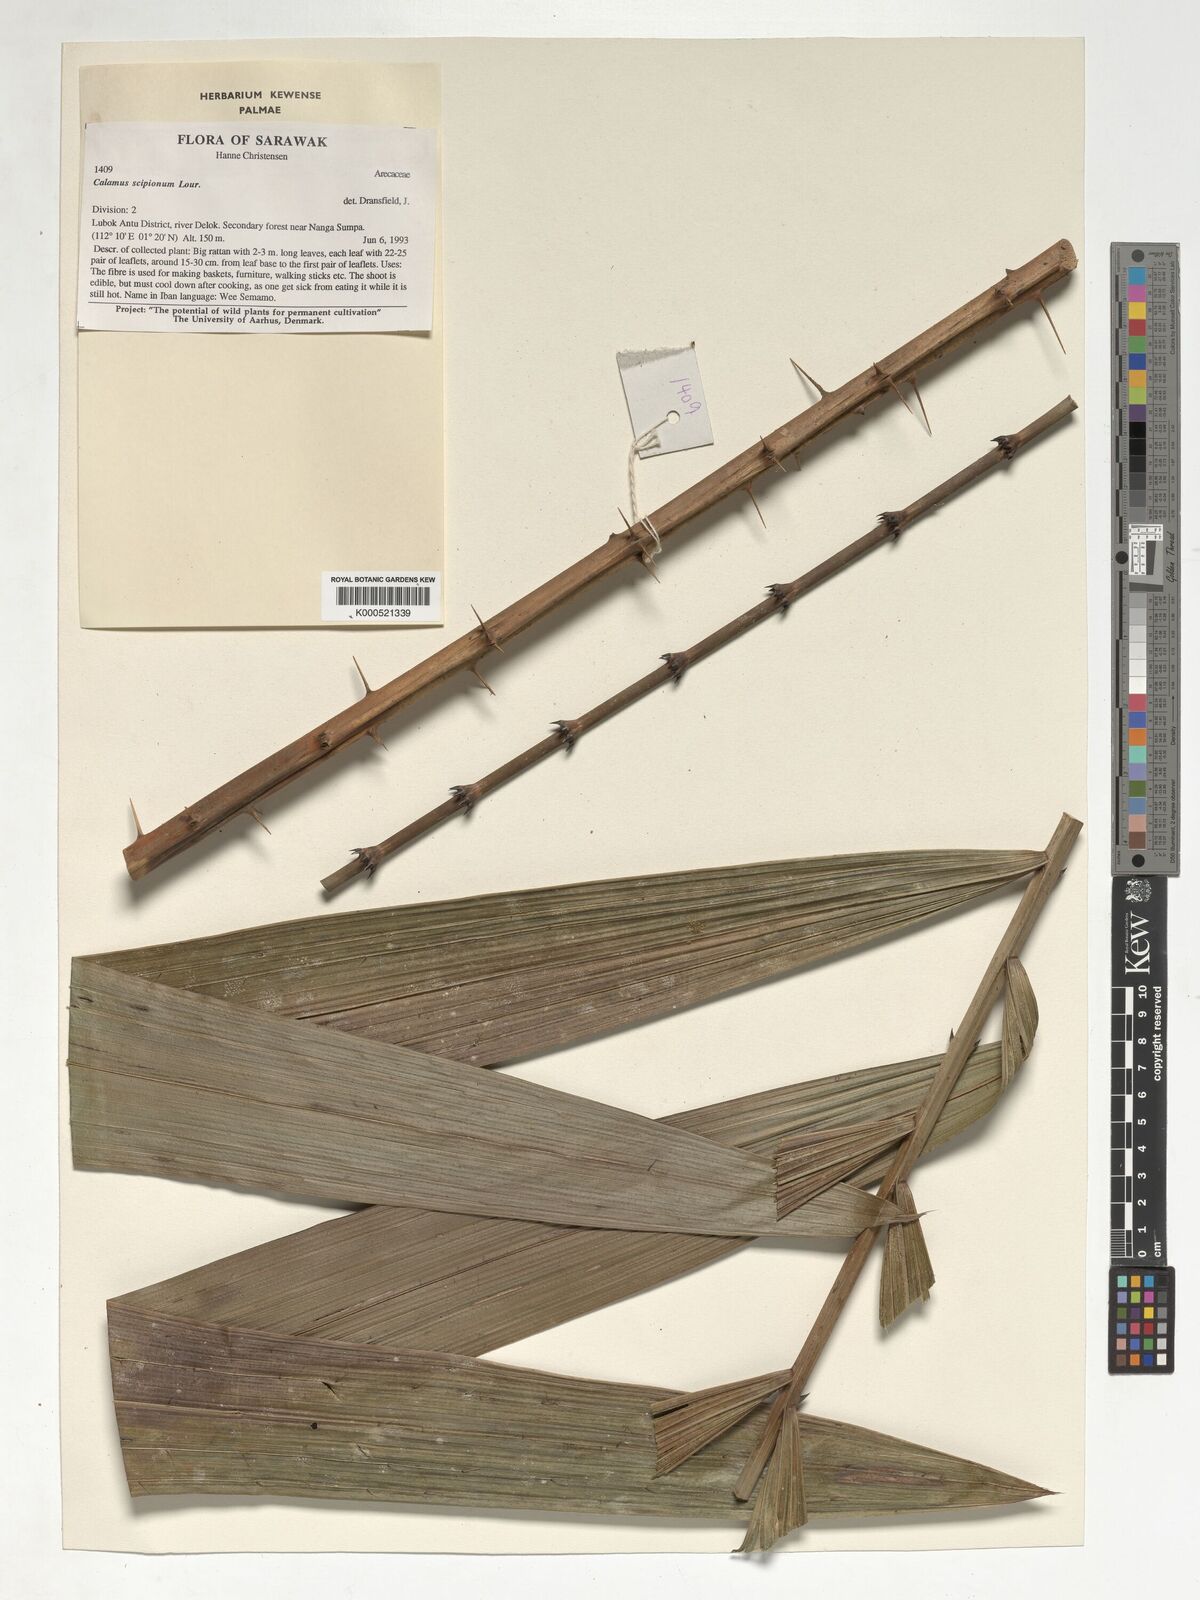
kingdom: Plantae
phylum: Tracheophyta
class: Liliopsida
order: Arecales
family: Arecaceae
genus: Calamus
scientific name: Calamus scipionum
